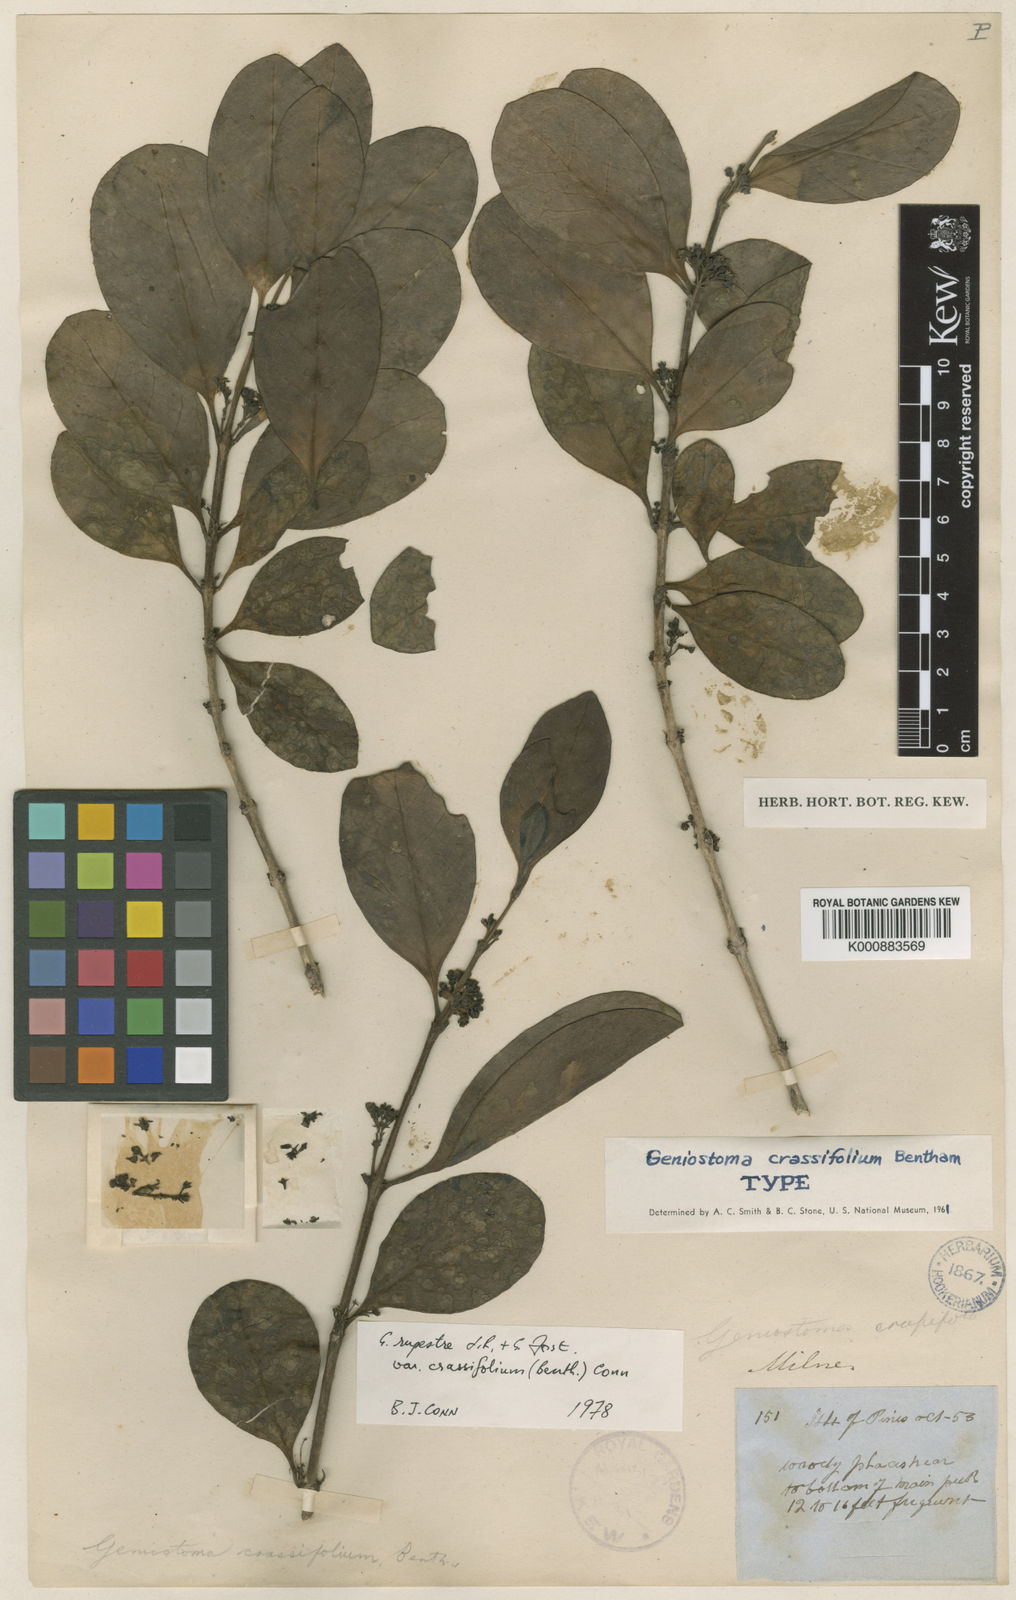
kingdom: Plantae
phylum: Tracheophyta
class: Magnoliopsida
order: Gentianales
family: Loganiaceae
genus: Geniostoma
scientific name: Geniostoma rupestre
